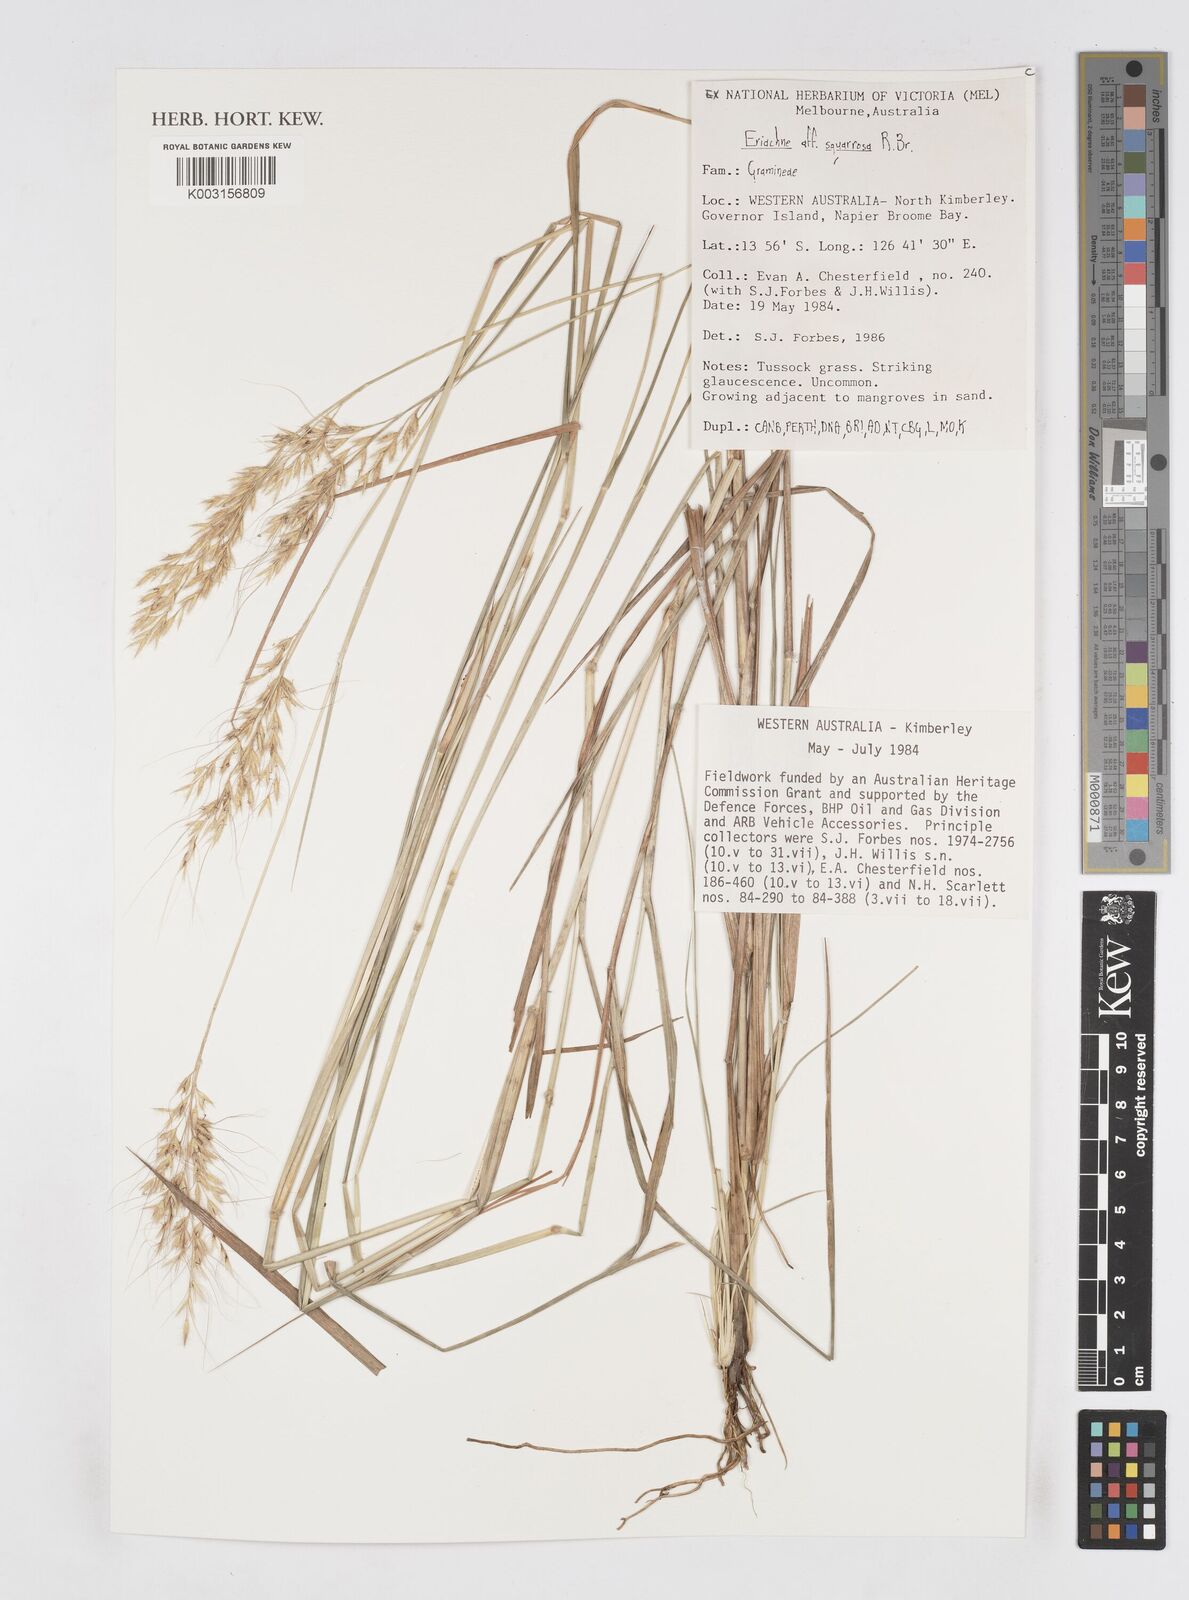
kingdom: Plantae
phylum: Tracheophyta
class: Liliopsida
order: Poales
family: Poaceae
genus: Eriachne
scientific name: Eriachne squarrosa
